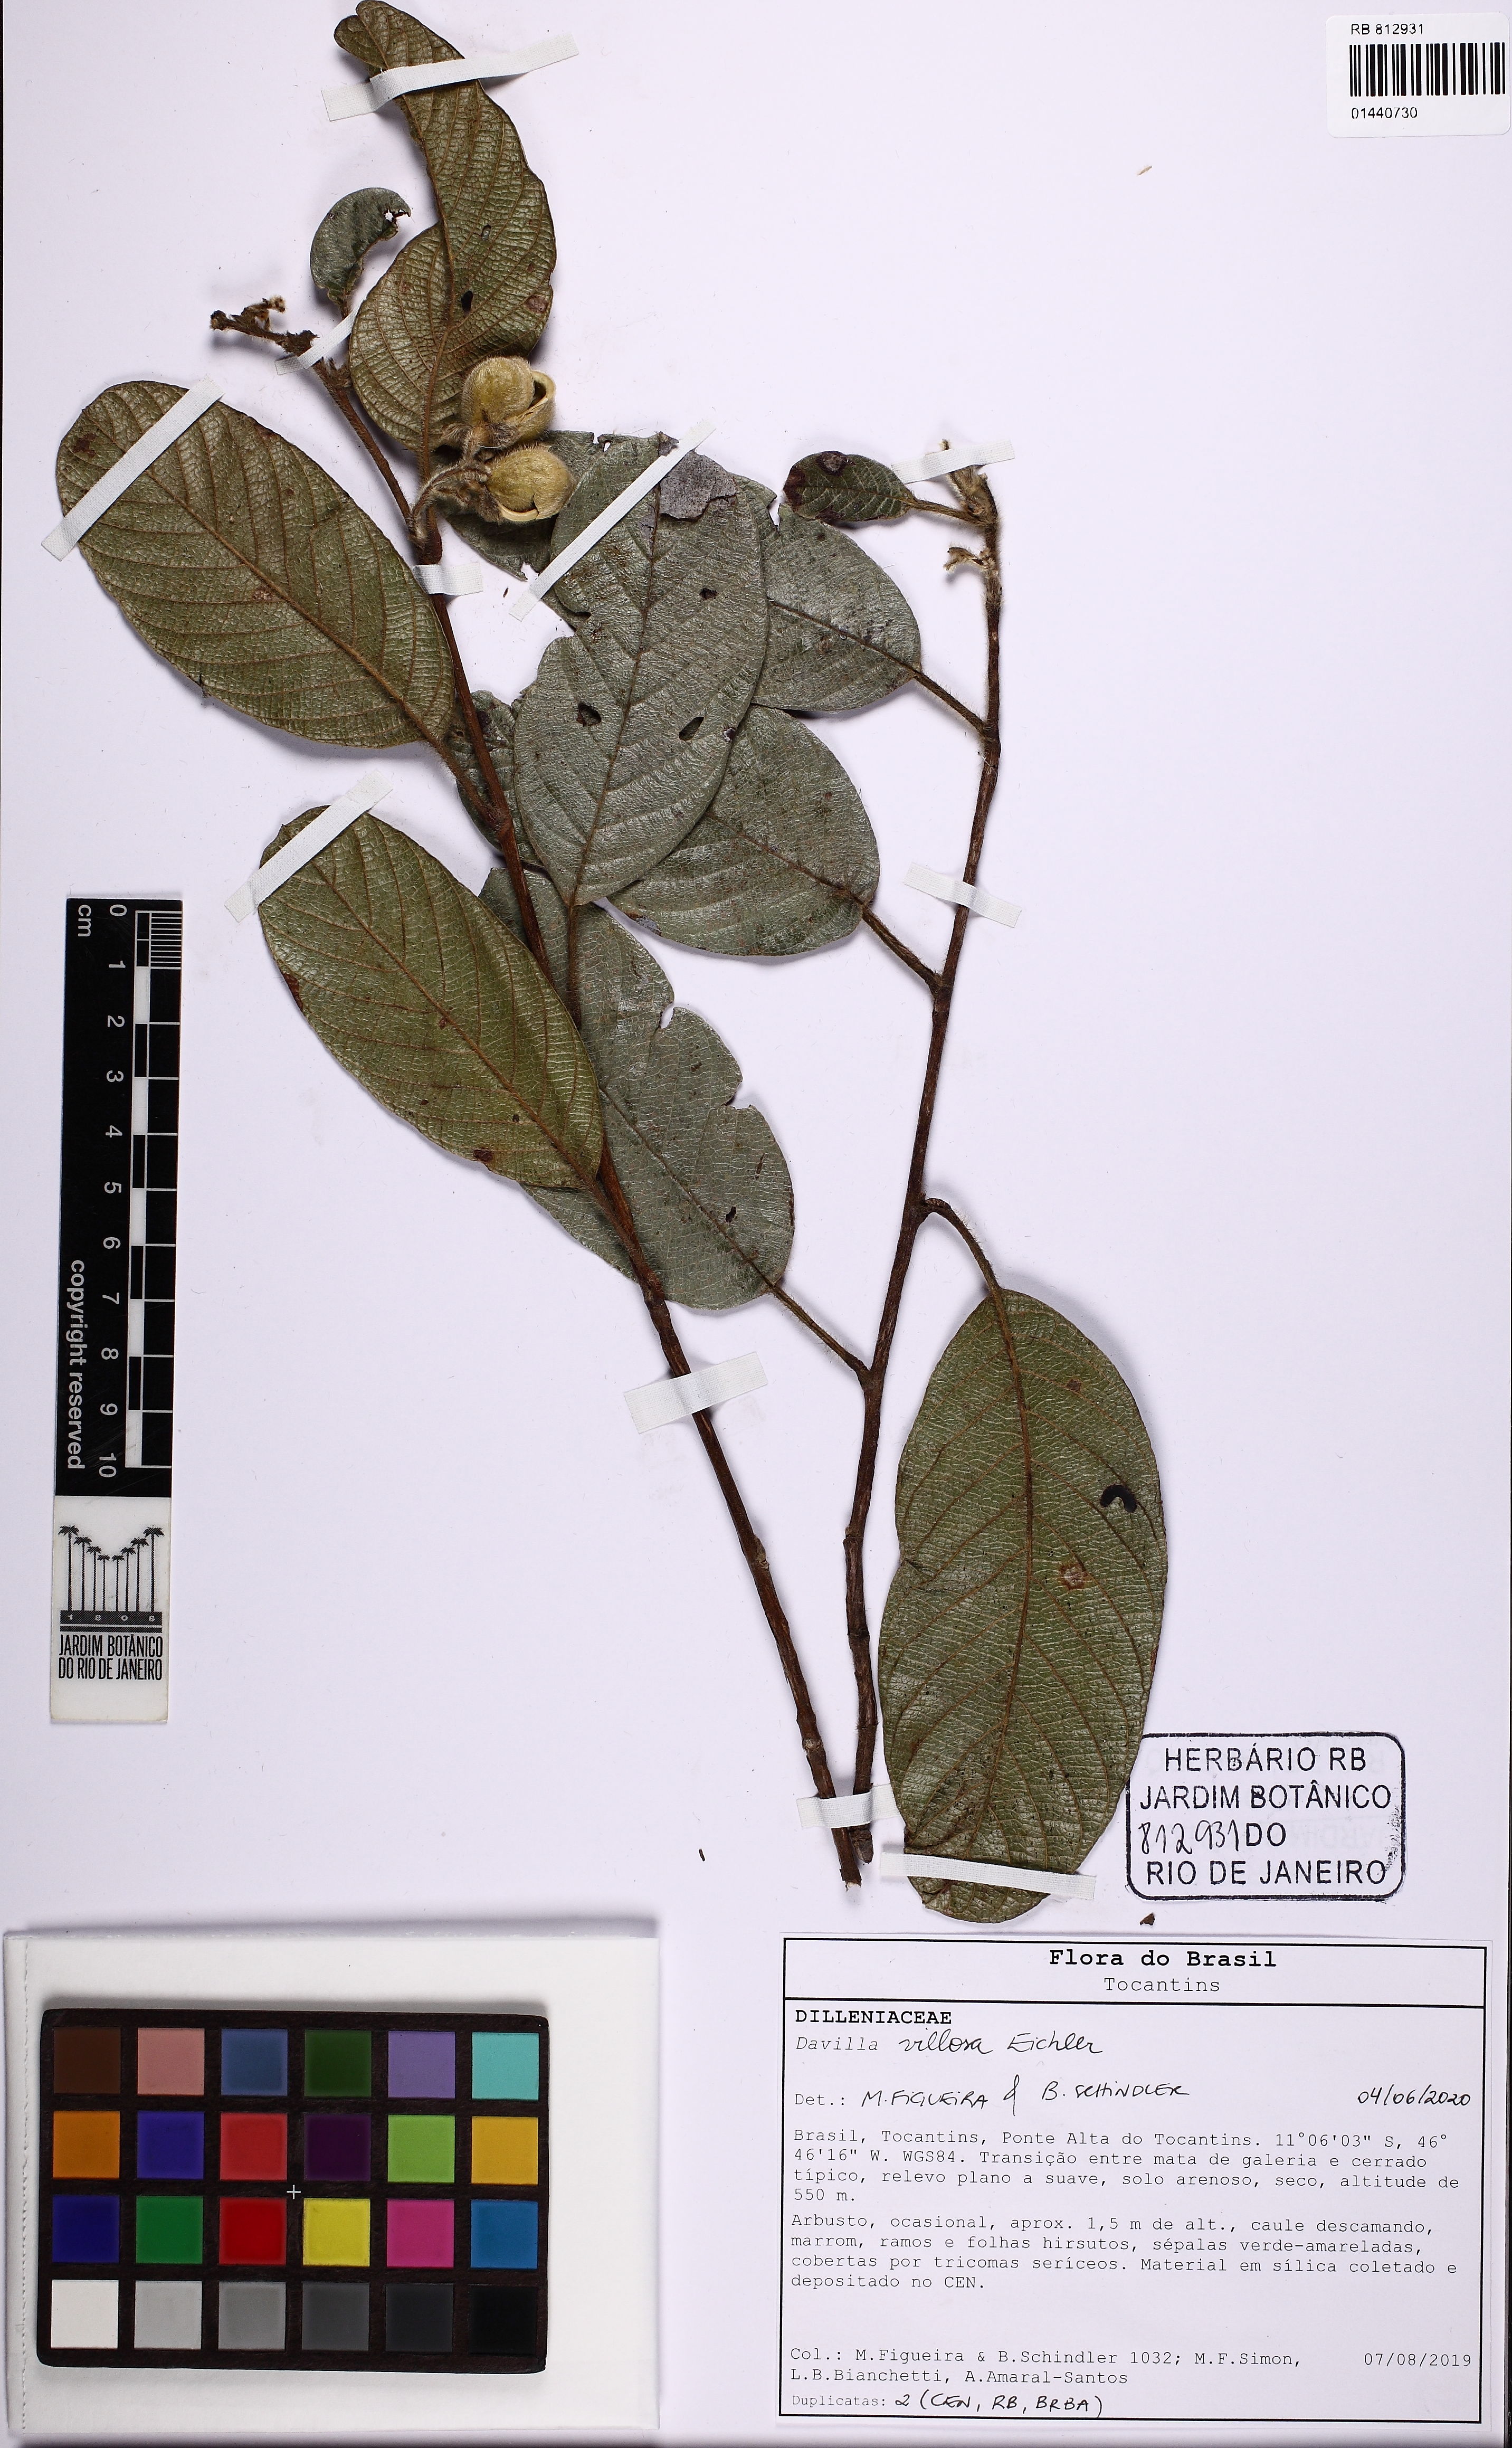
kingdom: Plantae
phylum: Tracheophyta
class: Magnoliopsida
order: Dilleniales
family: Dilleniaceae
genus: Davilla
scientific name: Davilla elliptica
